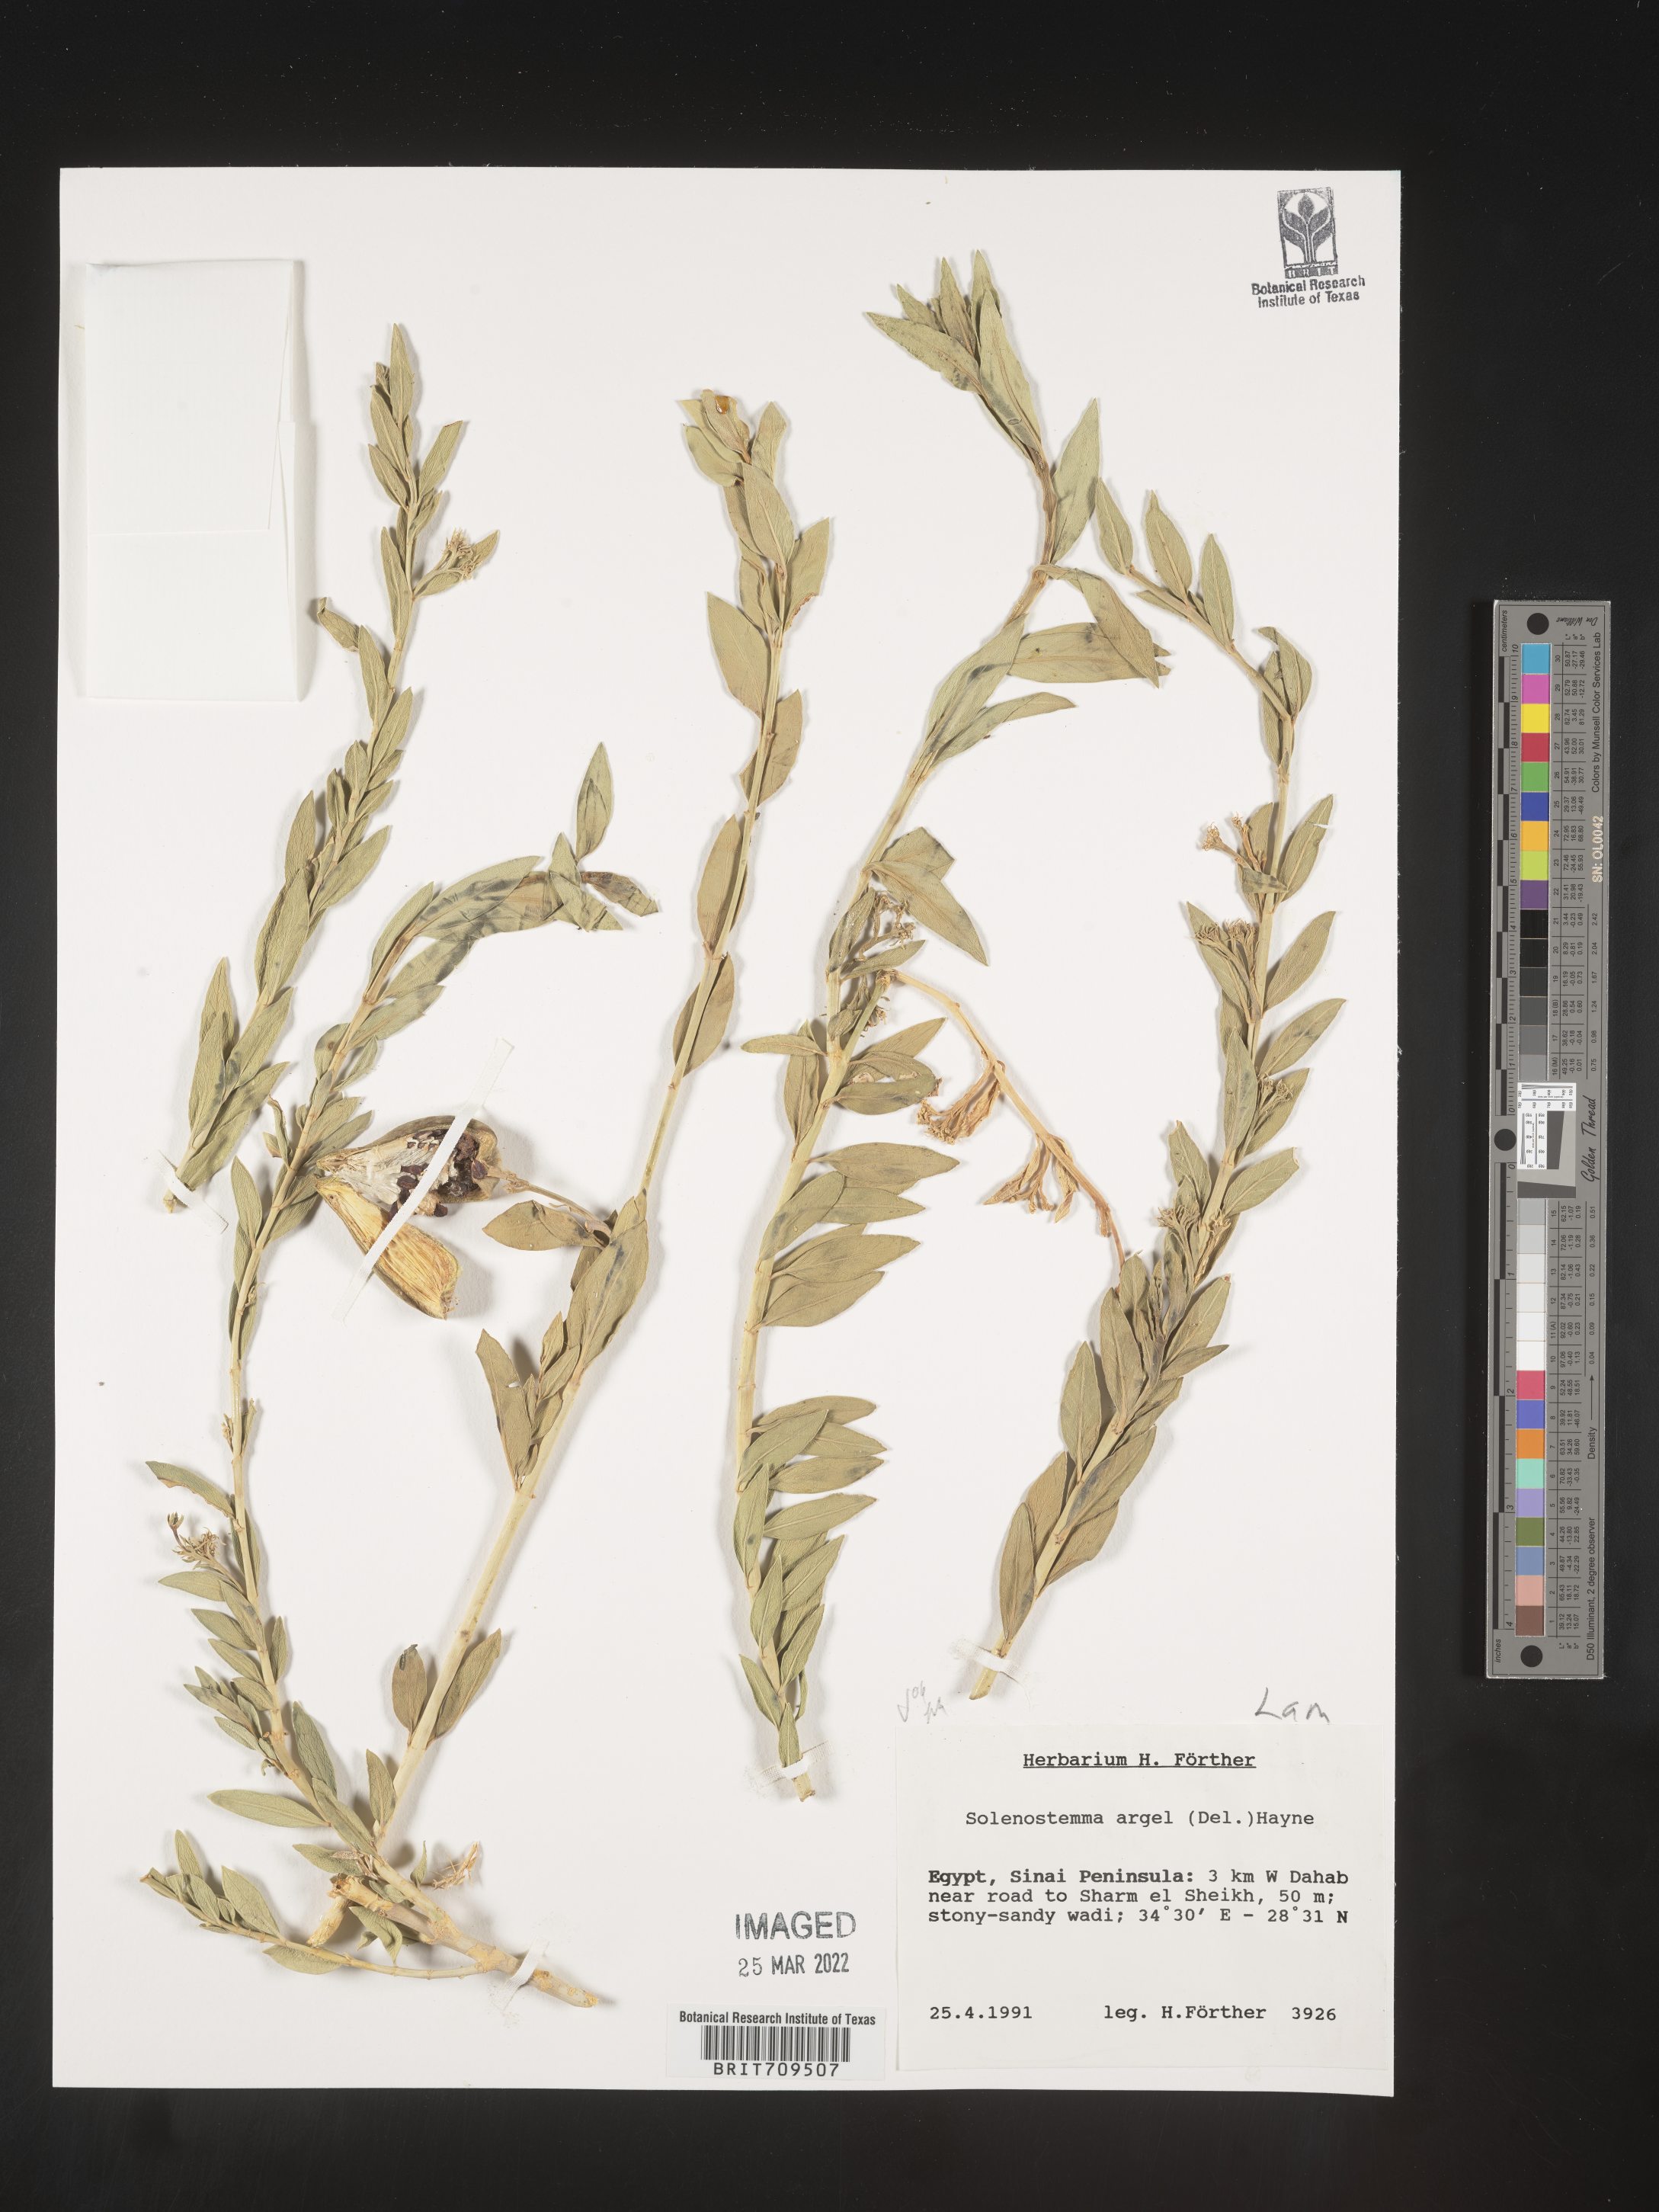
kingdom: Plantae
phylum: Tracheophyta
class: Magnoliopsida
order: Lamiales
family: Lamiaceae
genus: Coleus
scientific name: Coleus
